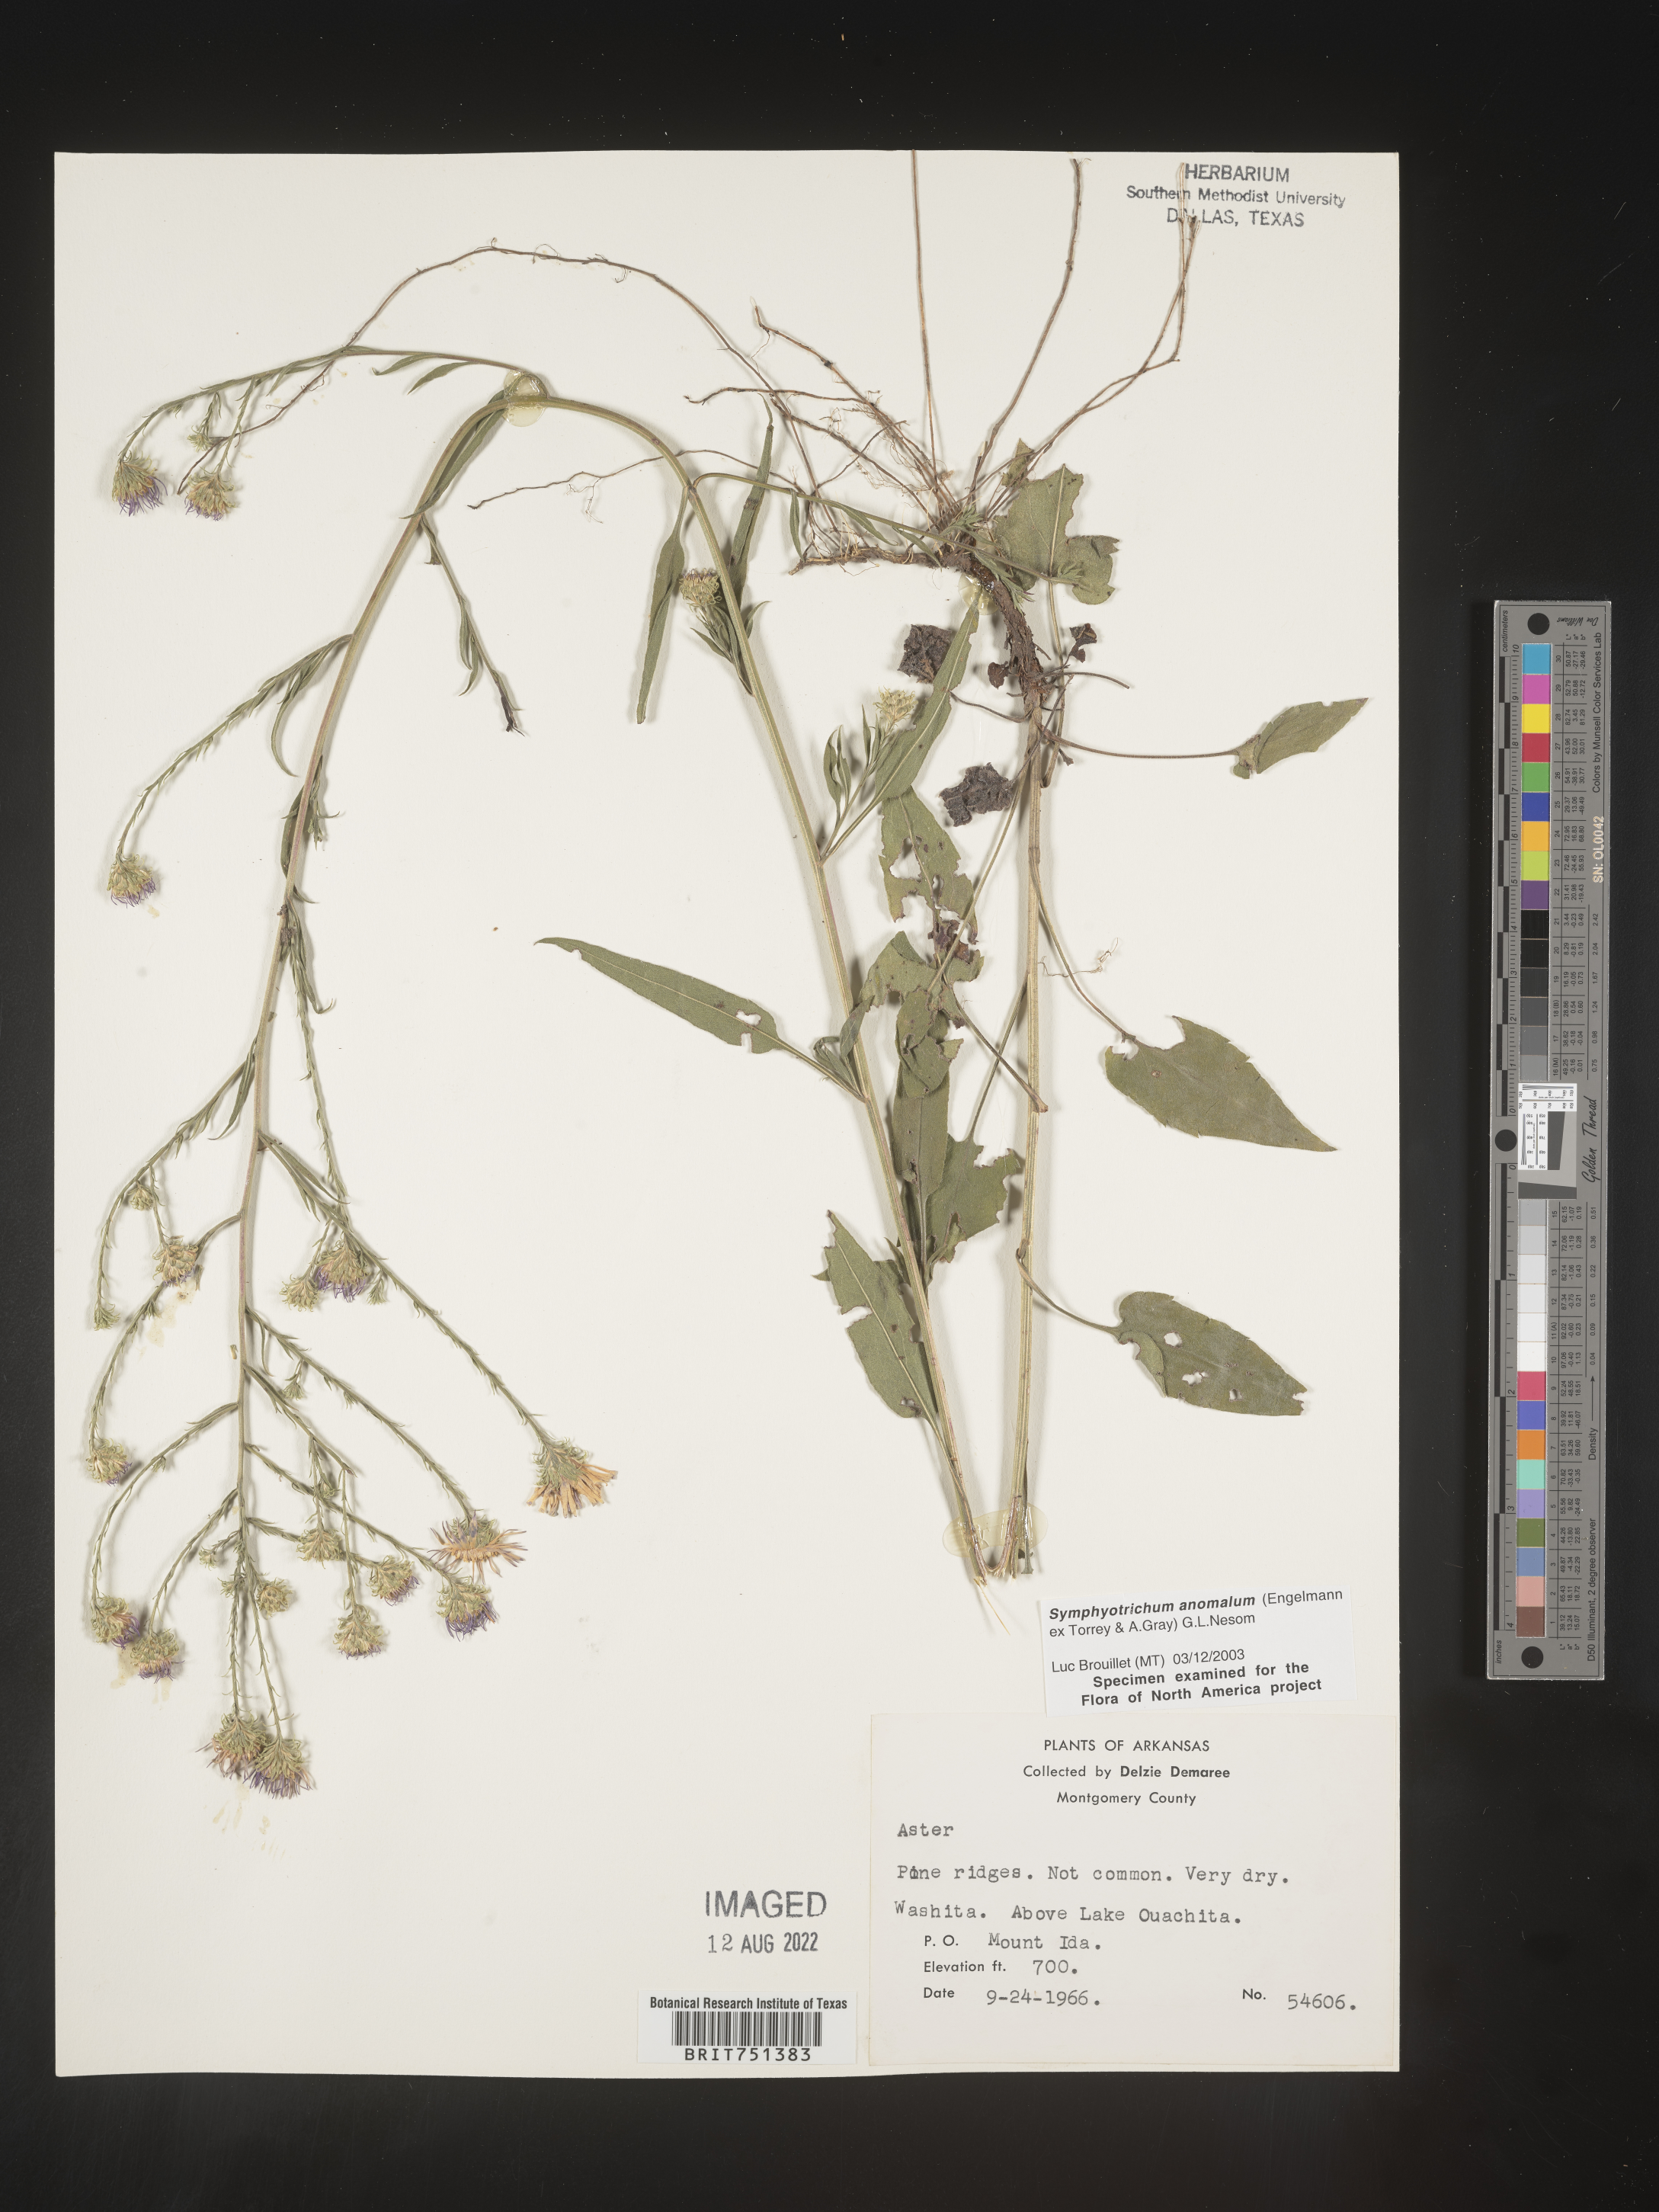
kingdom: Plantae
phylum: Tracheophyta
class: Magnoliopsida
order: Asterales
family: Asteraceae
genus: Symphyotrichum
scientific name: Symphyotrichum anomalum
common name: Many-ray aster
